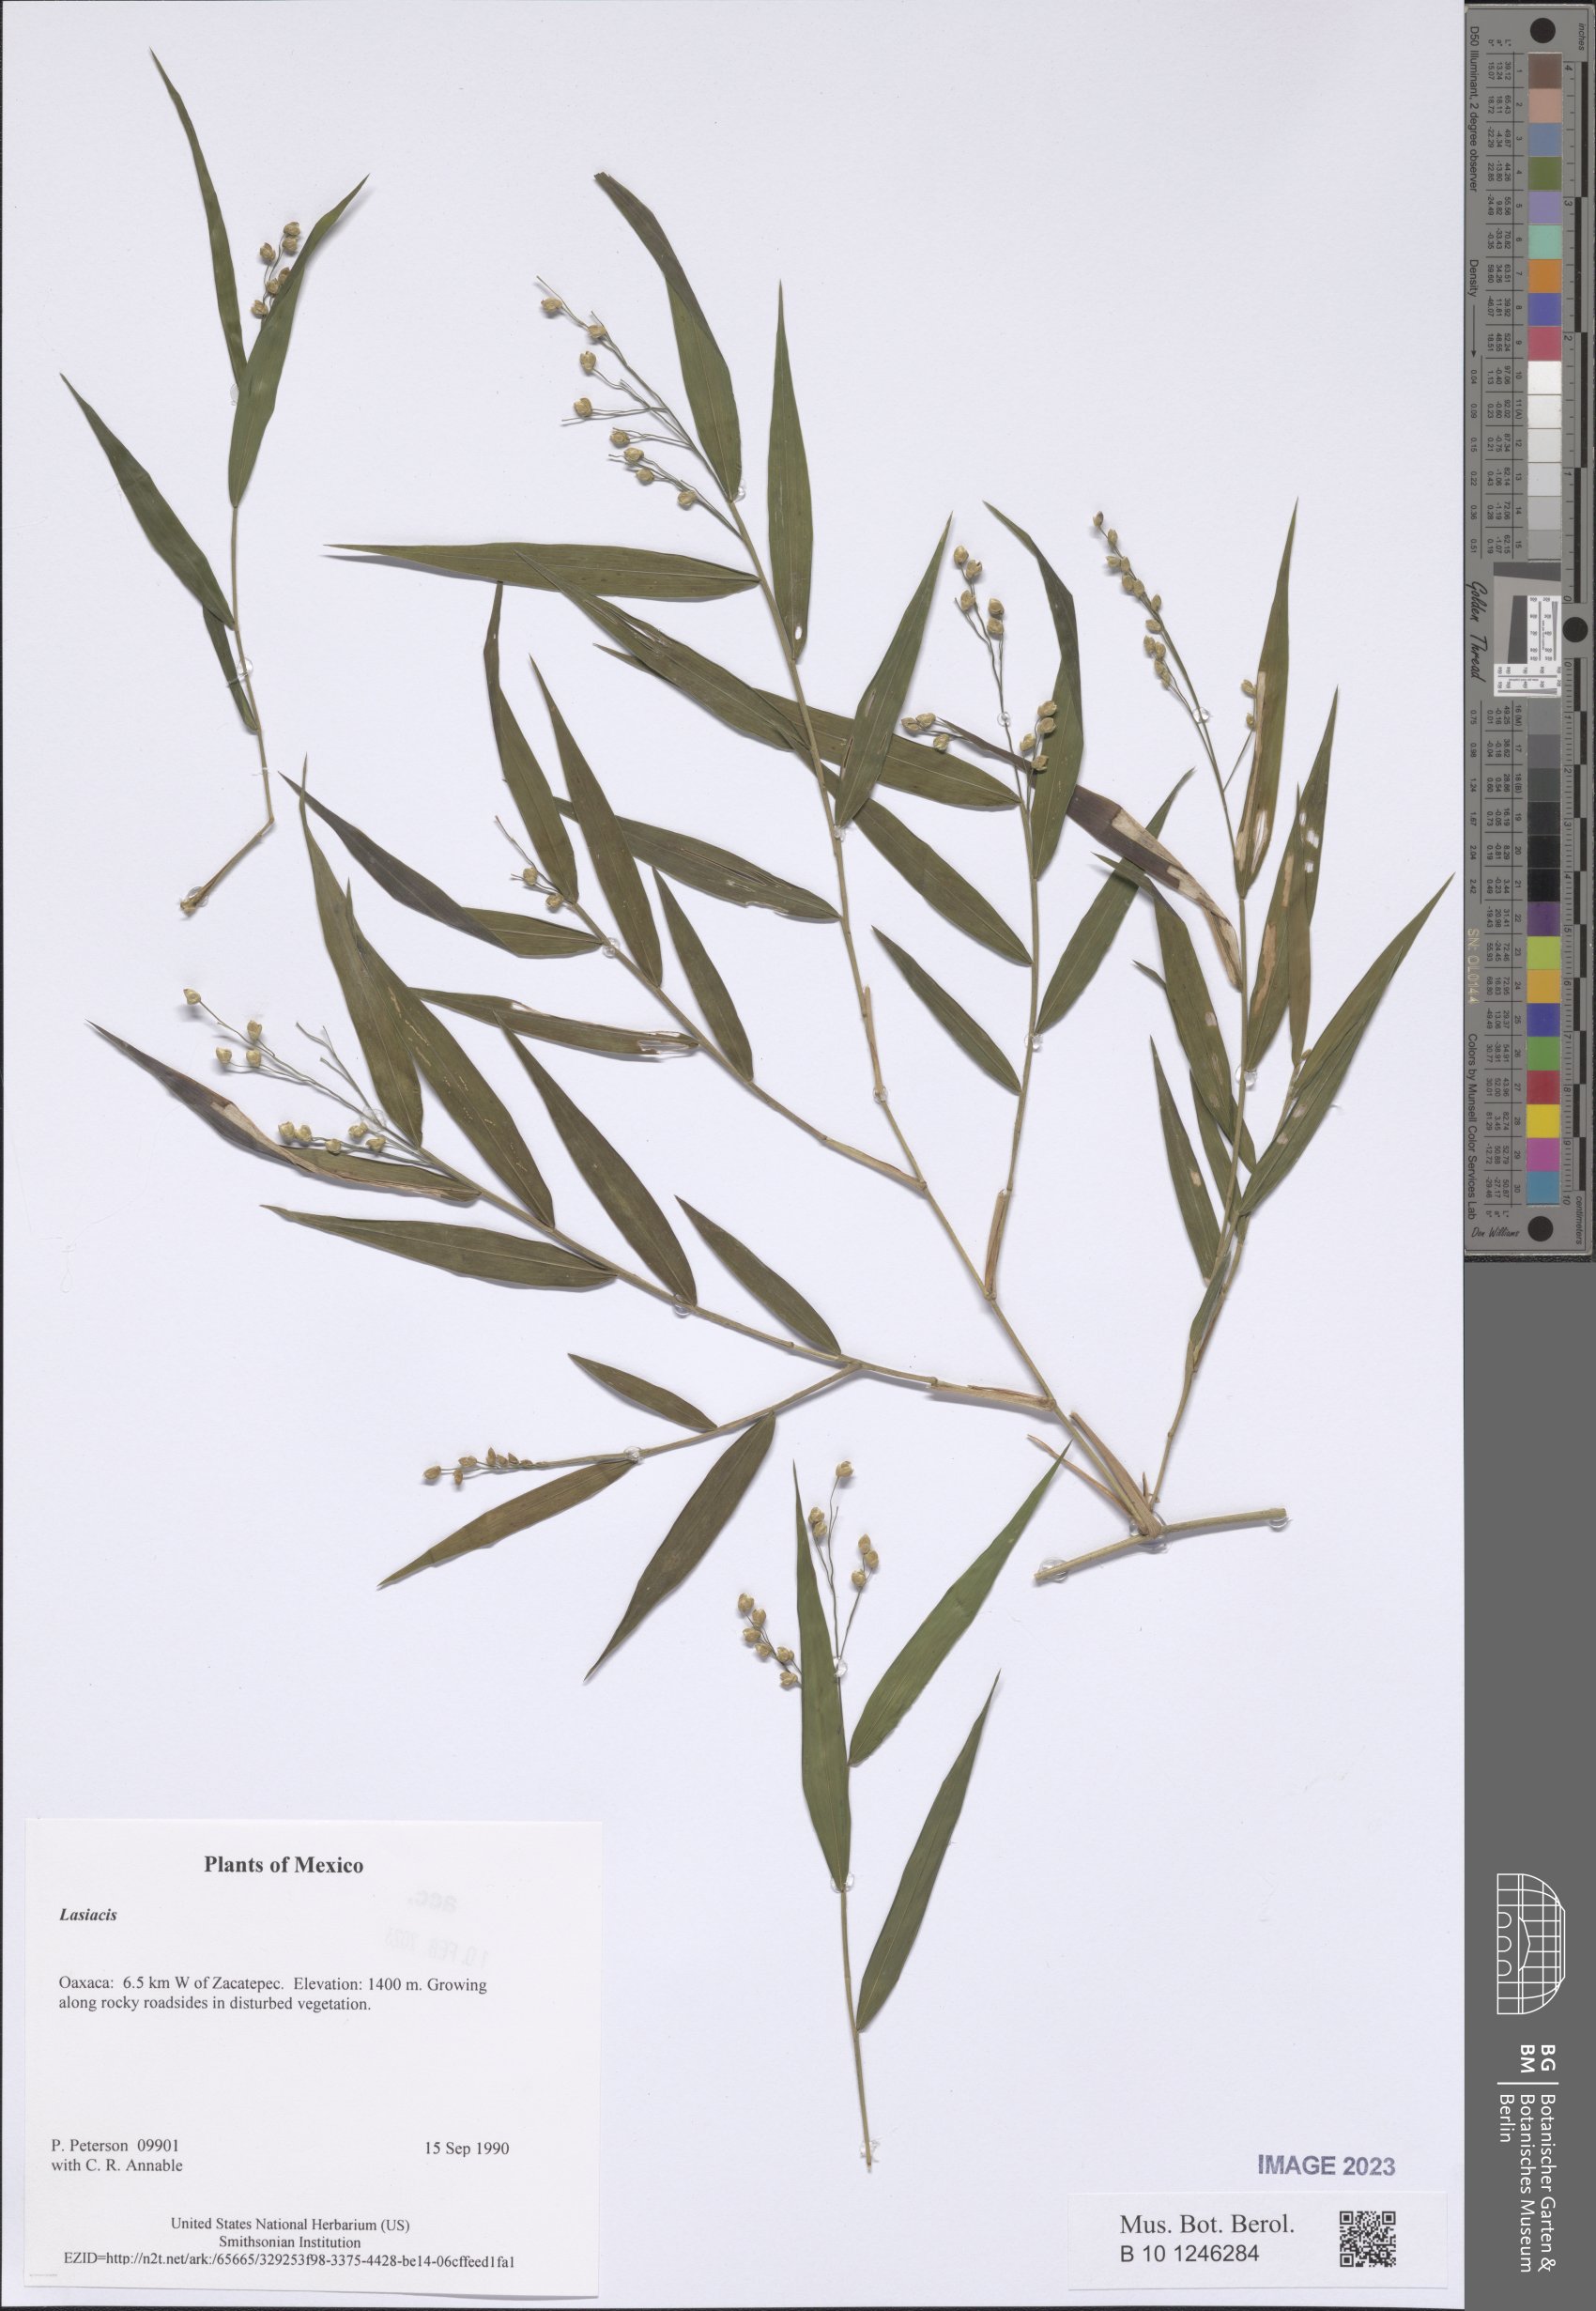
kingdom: Plantae
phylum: Tracheophyta
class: Liliopsida
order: Poales
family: Poaceae
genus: Lasiacis
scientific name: Lasiacis
